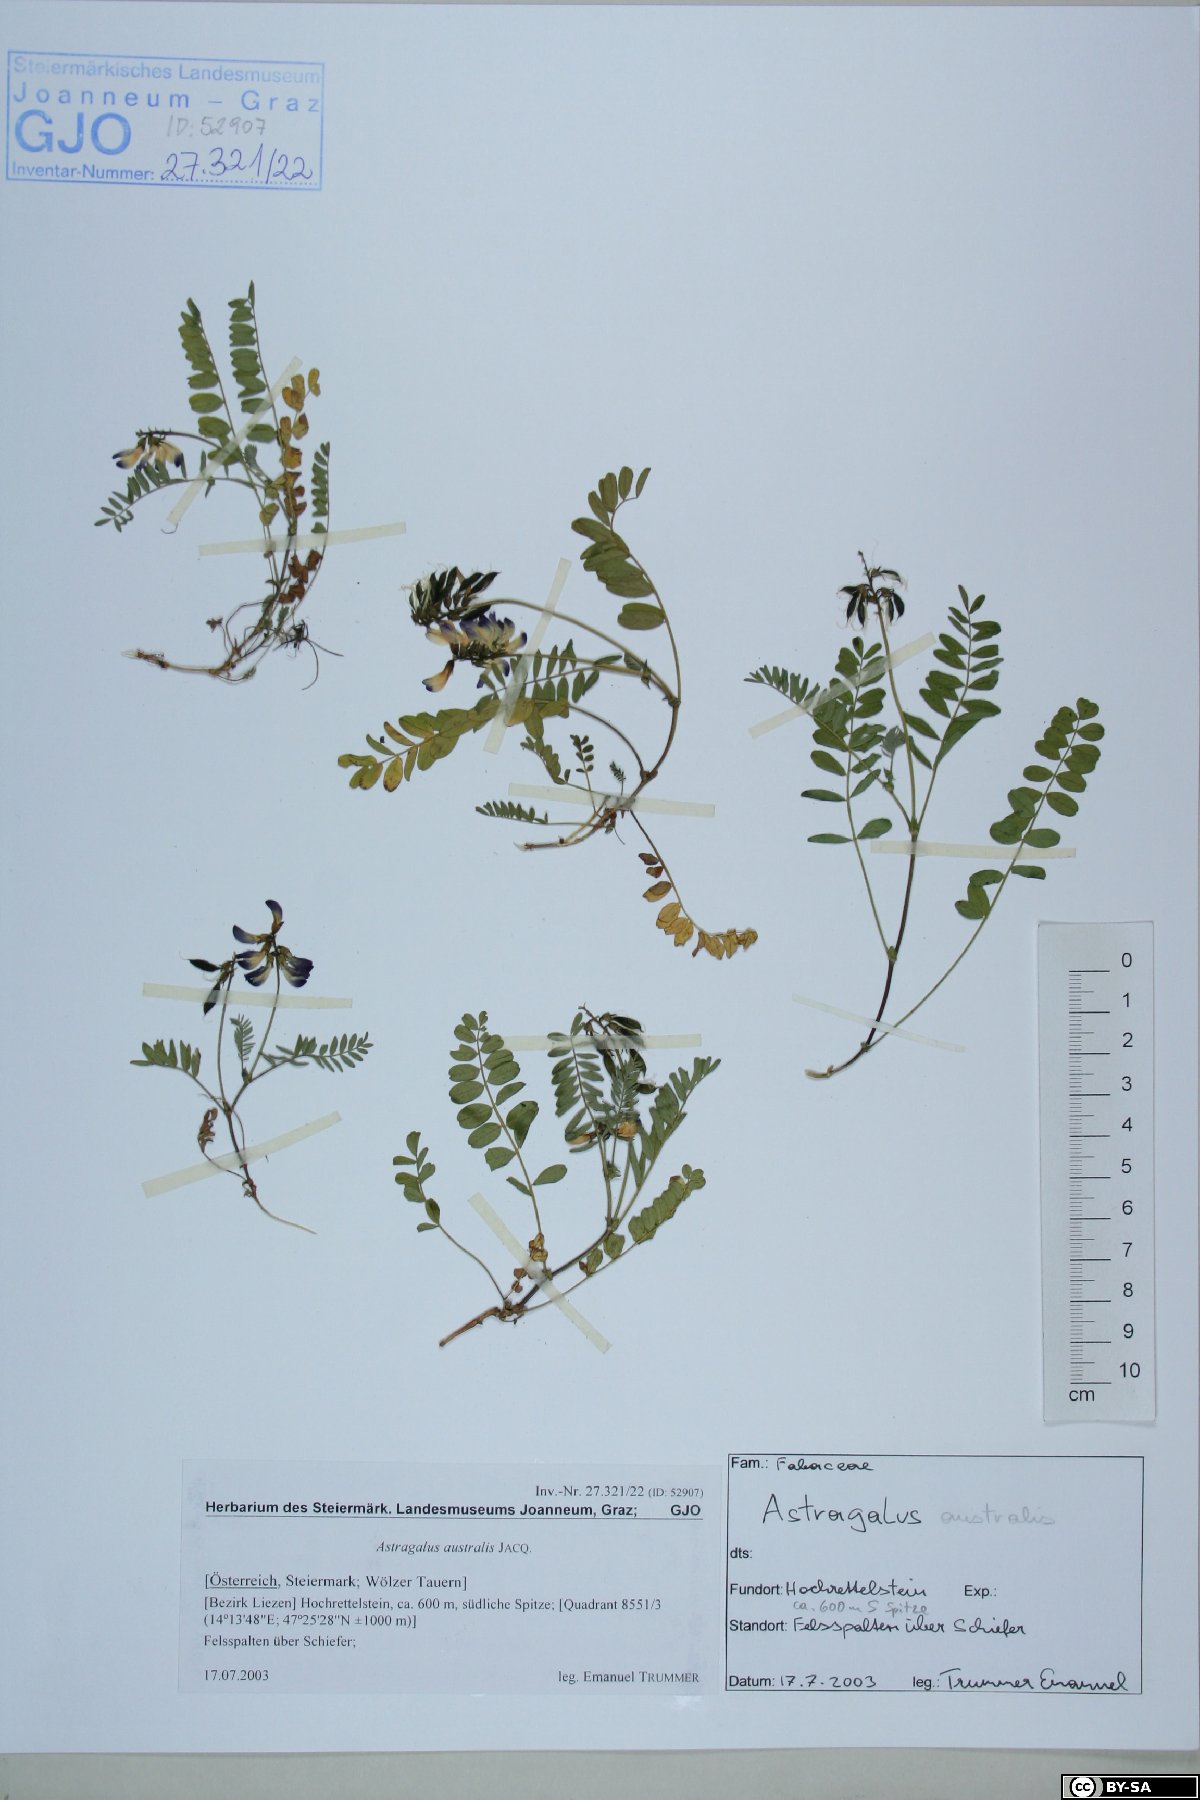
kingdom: Plantae
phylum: Tracheophyta
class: Magnoliopsida
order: Fabales
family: Fabaceae
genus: Astragalus
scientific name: Astragalus australis
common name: Indian milk-vetch
